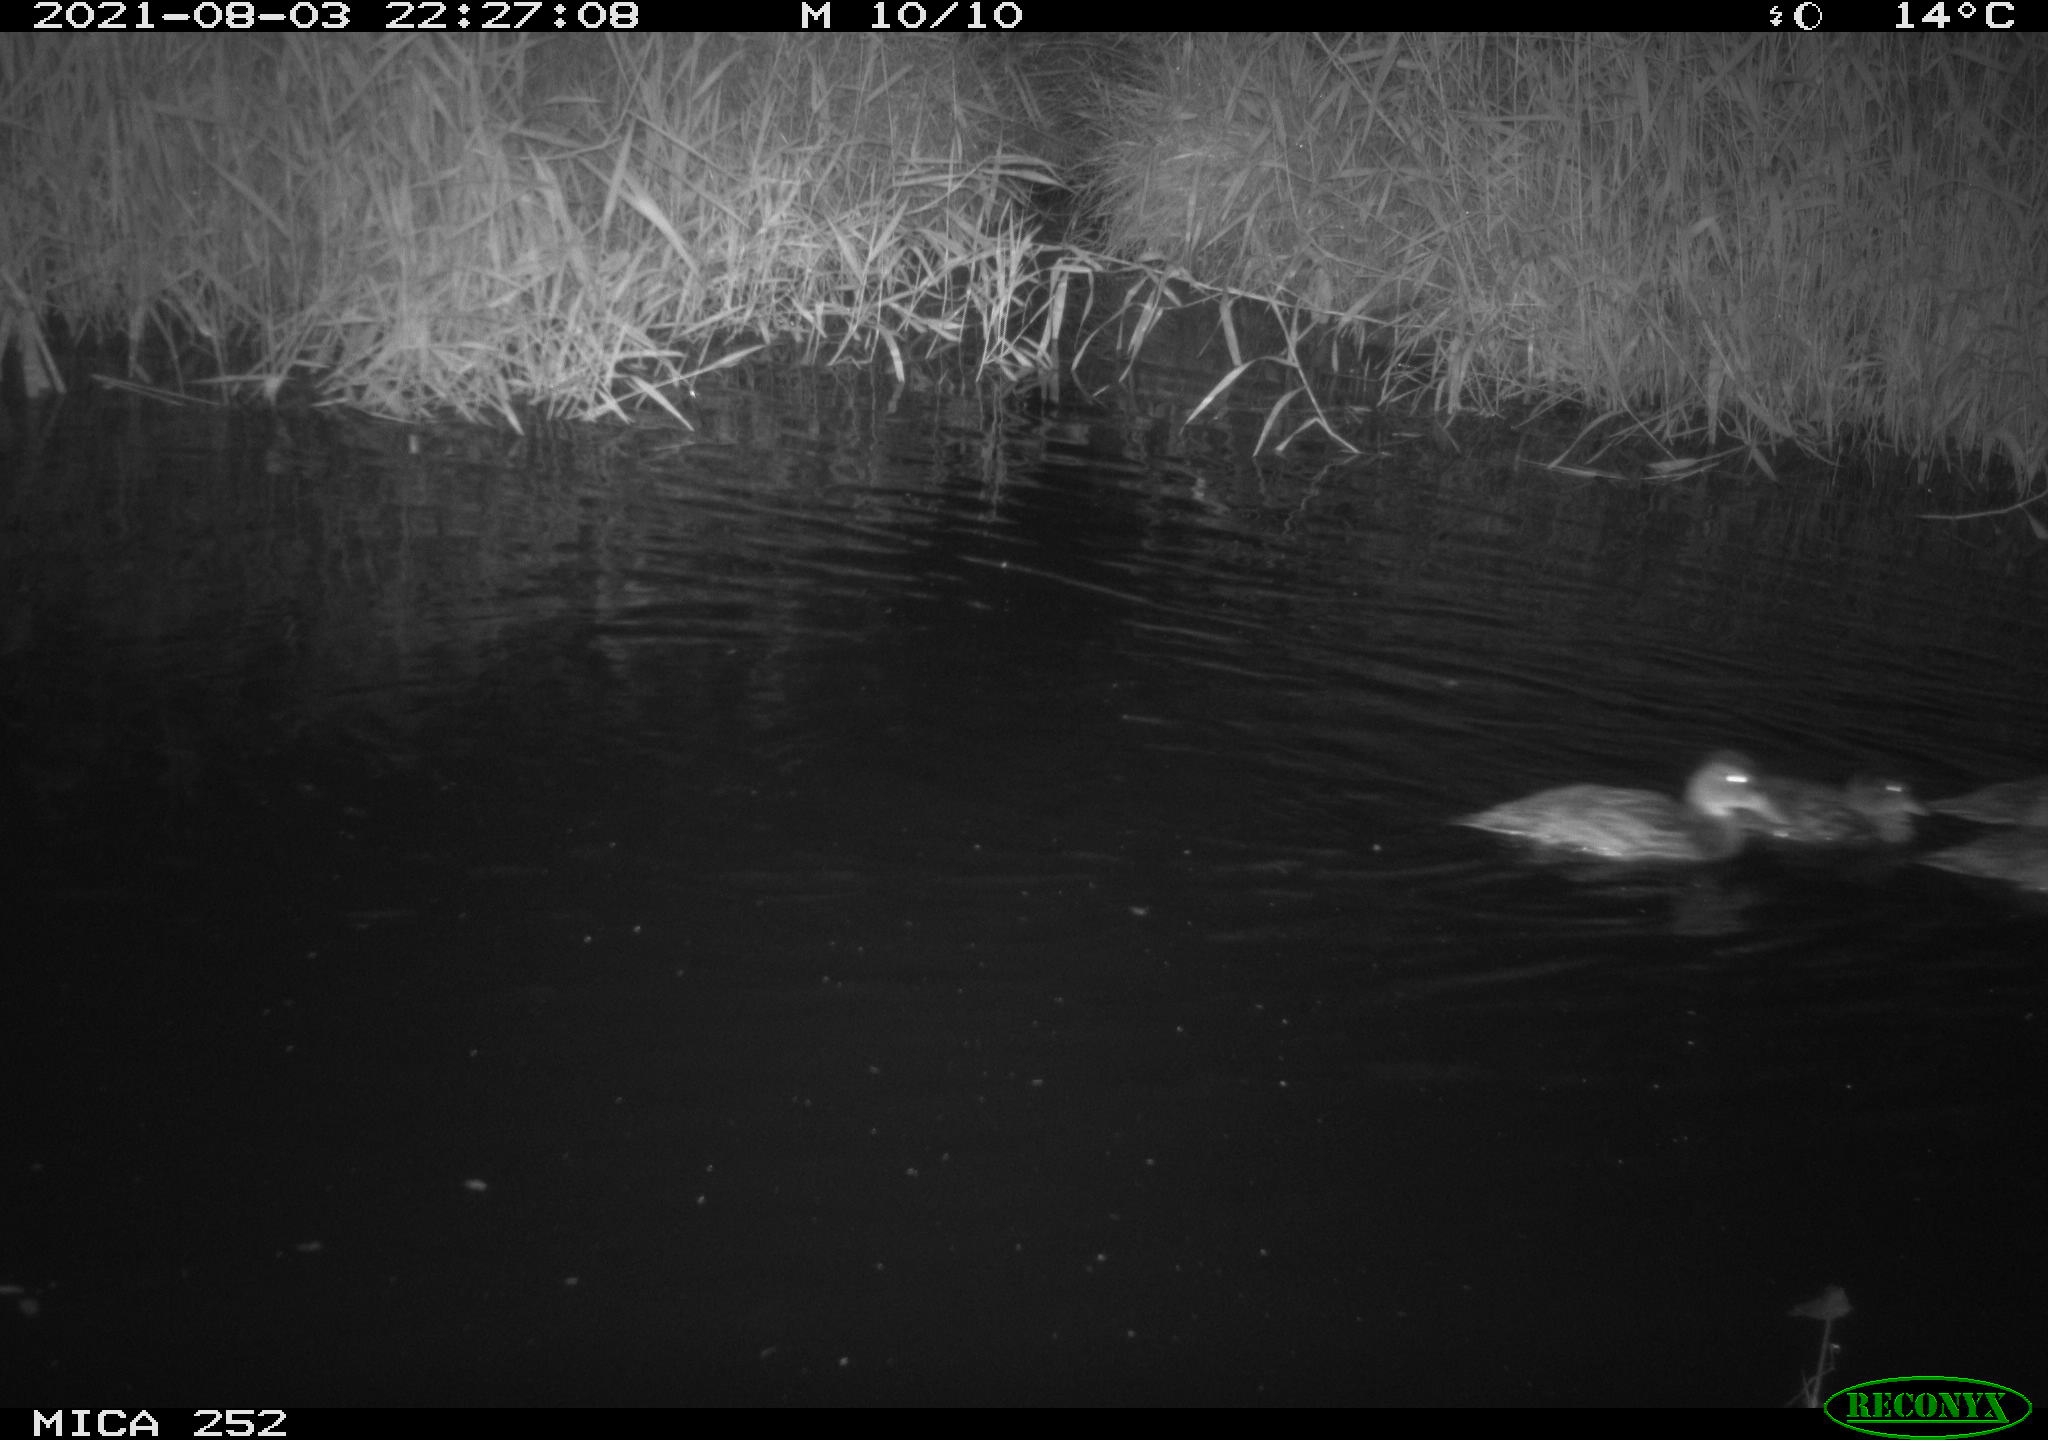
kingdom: Animalia
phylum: Chordata
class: Aves
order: Anseriformes
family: Anatidae
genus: Anas
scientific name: Anas platyrhynchos
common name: Mallard
